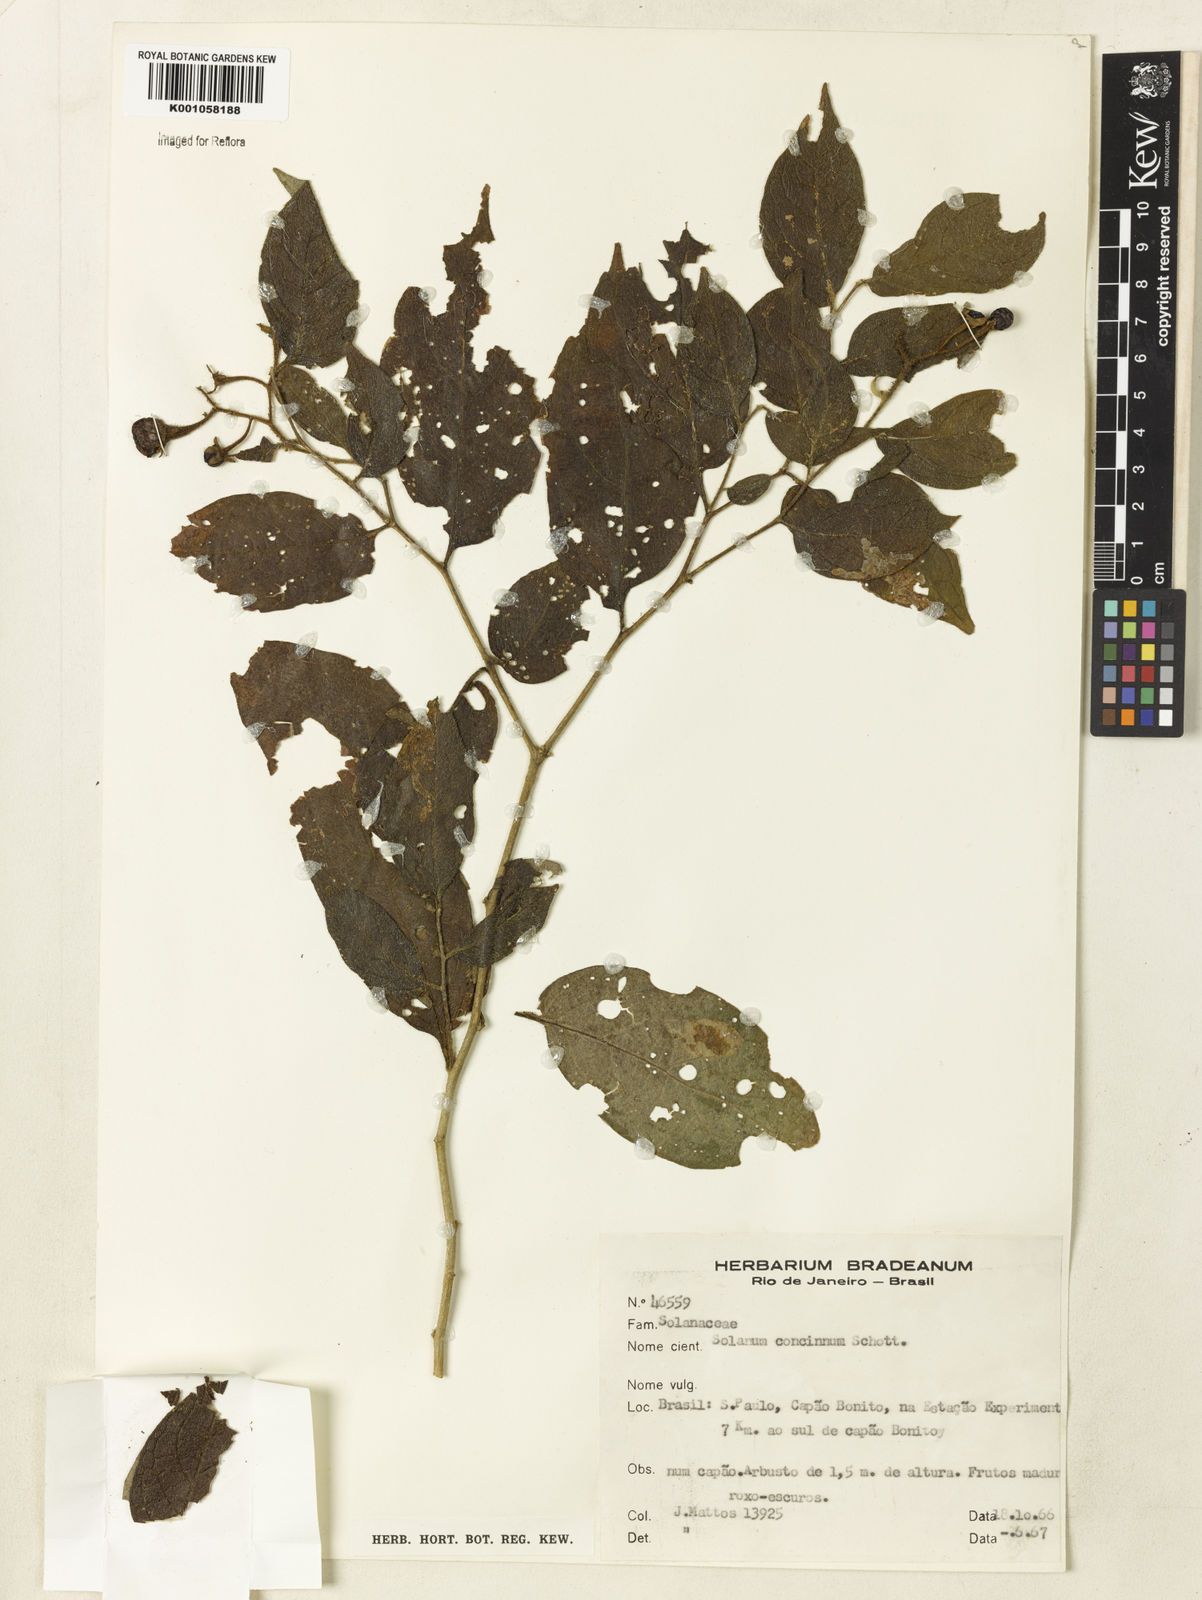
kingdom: Plantae
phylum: Tracheophyta
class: Magnoliopsida
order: Solanales
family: Solanaceae
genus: Solanum
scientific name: Solanum concinnum
